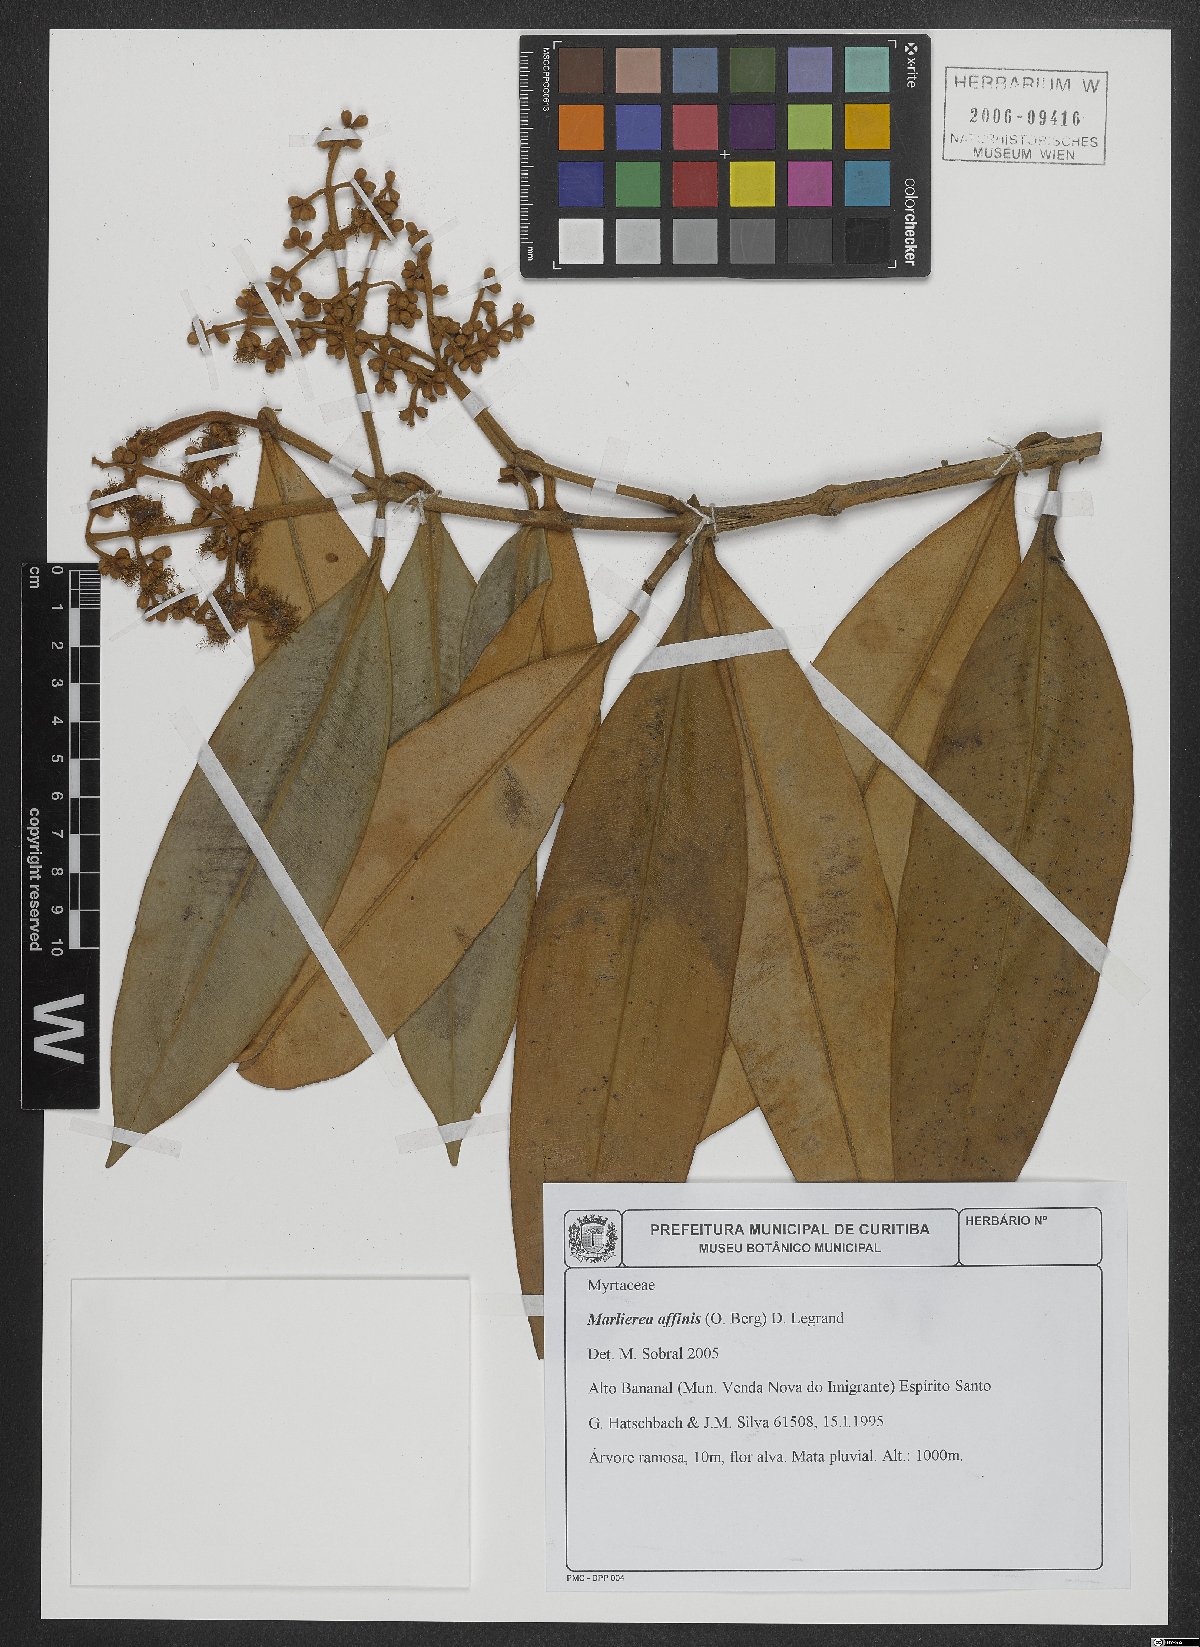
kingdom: Plantae
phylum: Tracheophyta
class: Magnoliopsida
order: Myrtales
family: Myrtaceae
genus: Marlierea
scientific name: Marlierea affinis
